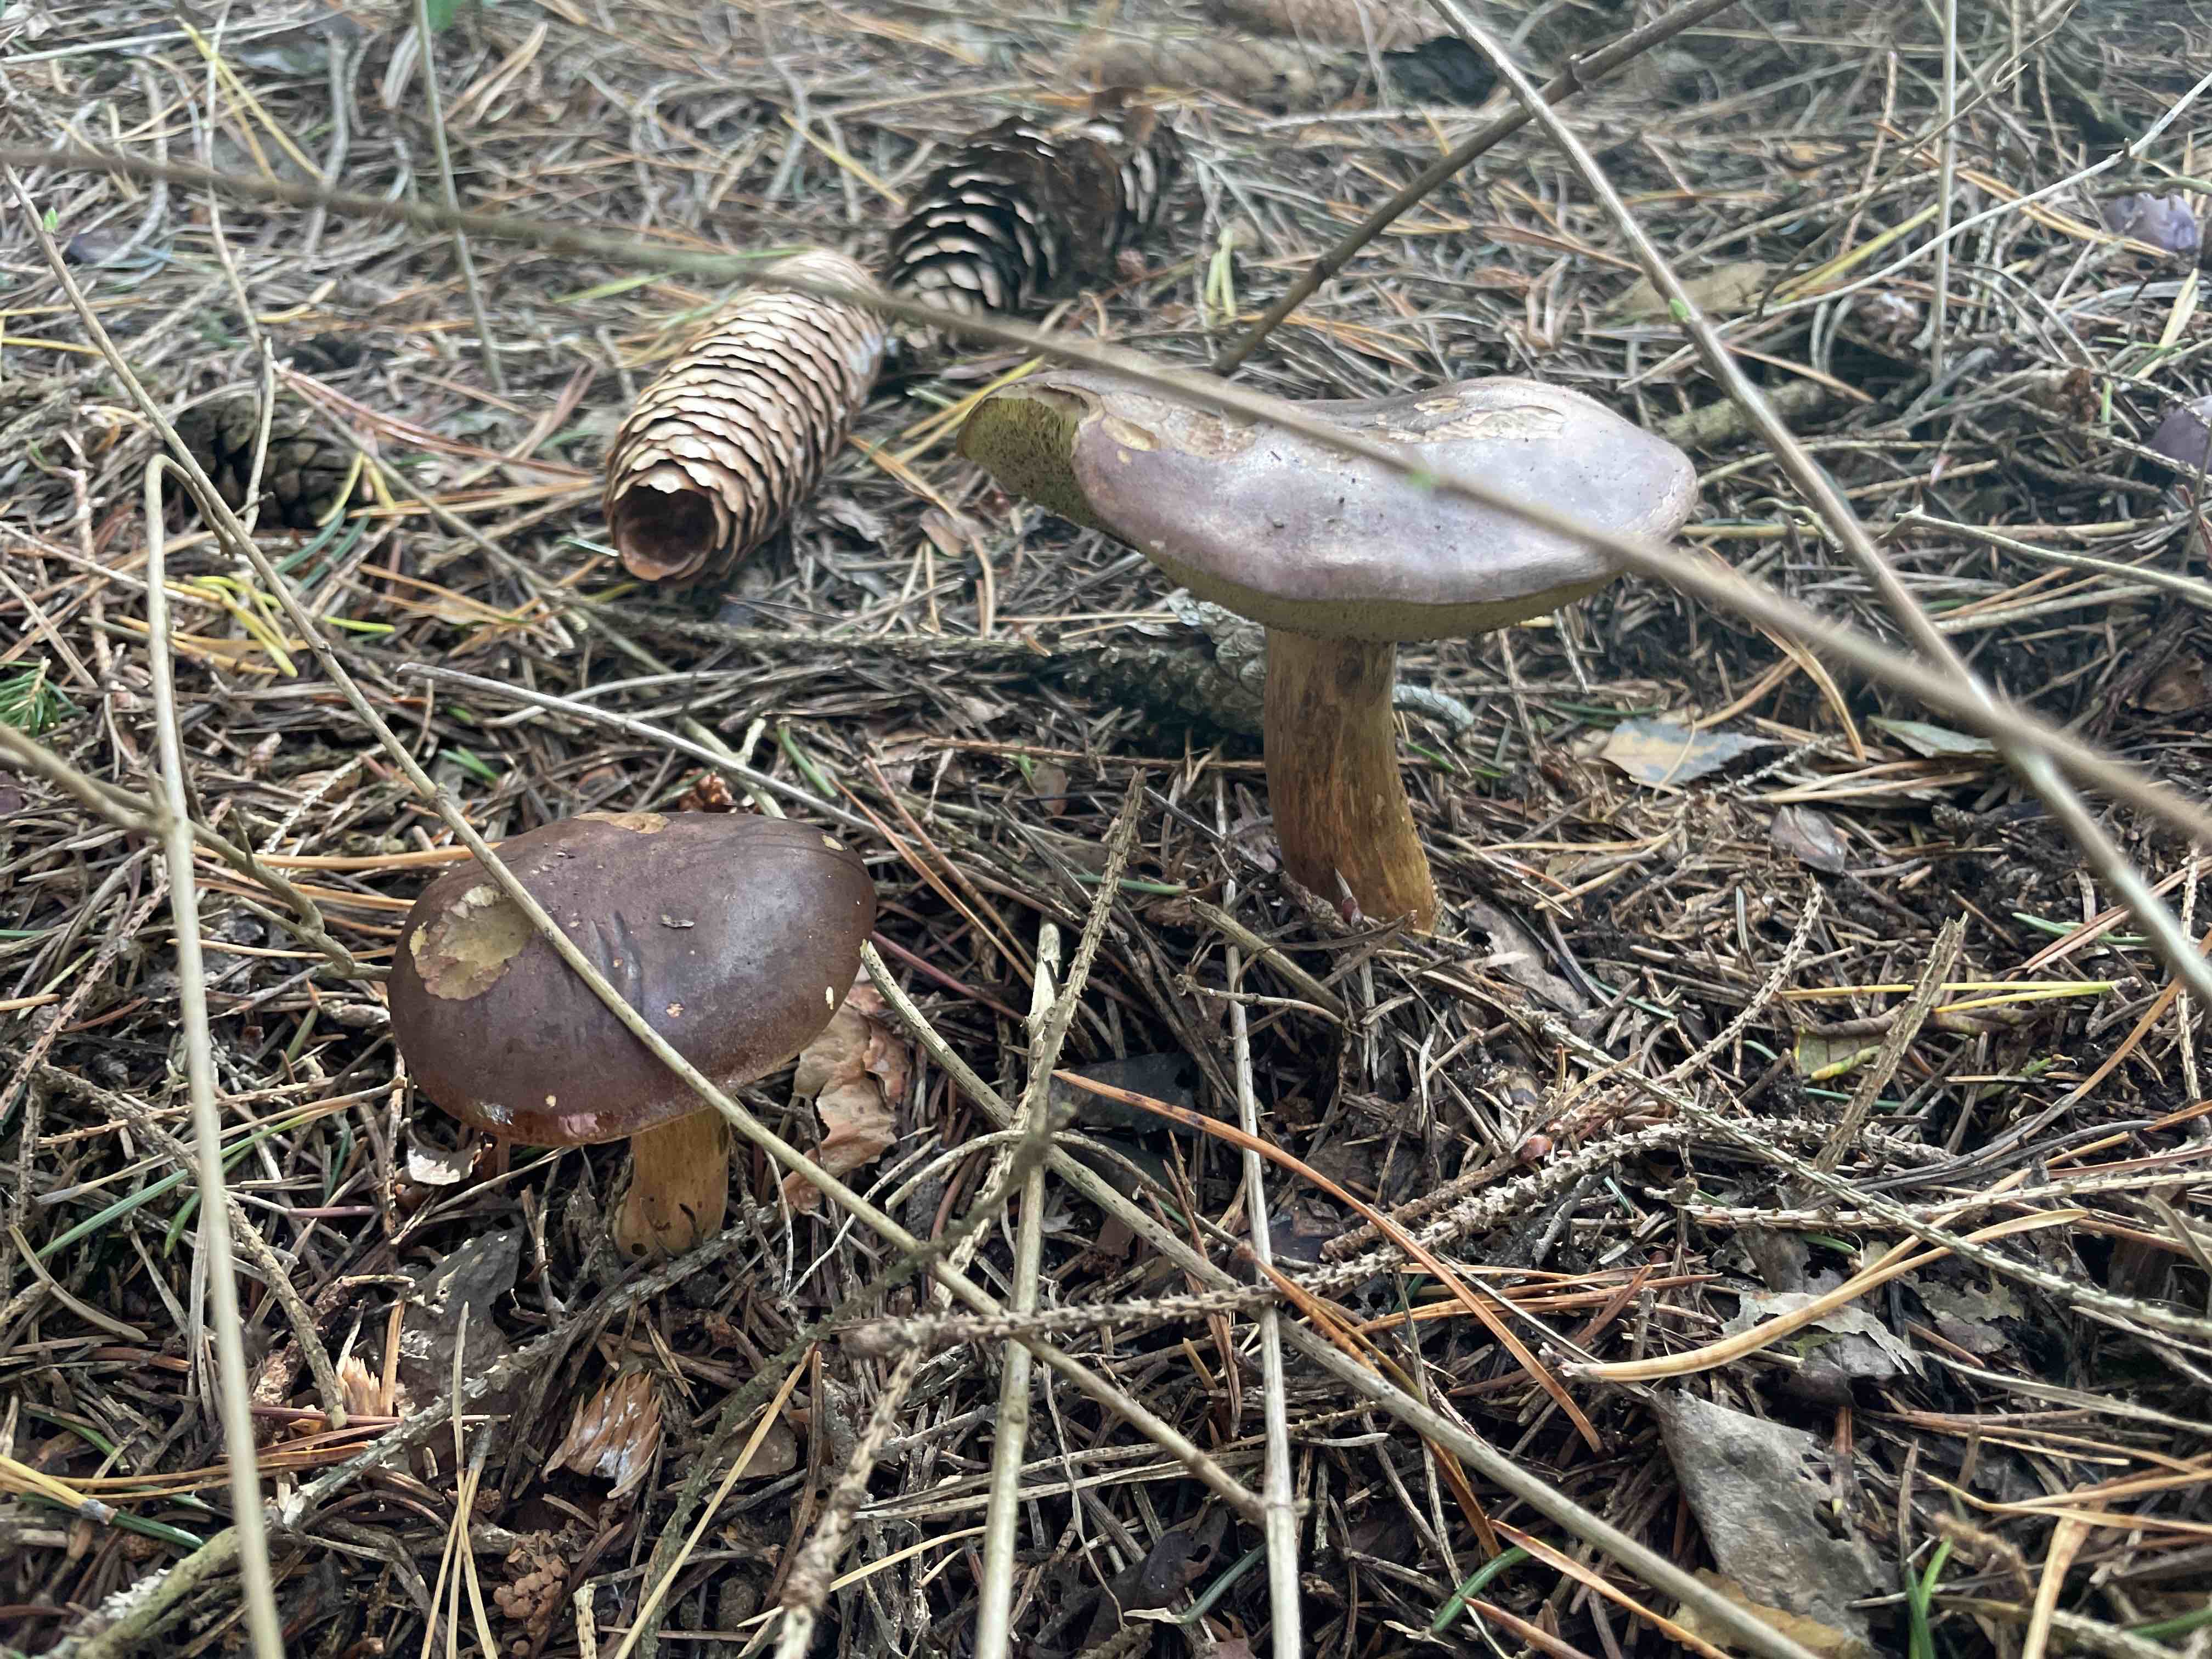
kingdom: Fungi
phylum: Basidiomycota
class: Agaricomycetes
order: Boletales
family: Boletaceae
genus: Imleria
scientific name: Imleria badia
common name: brunstokket rørhat
